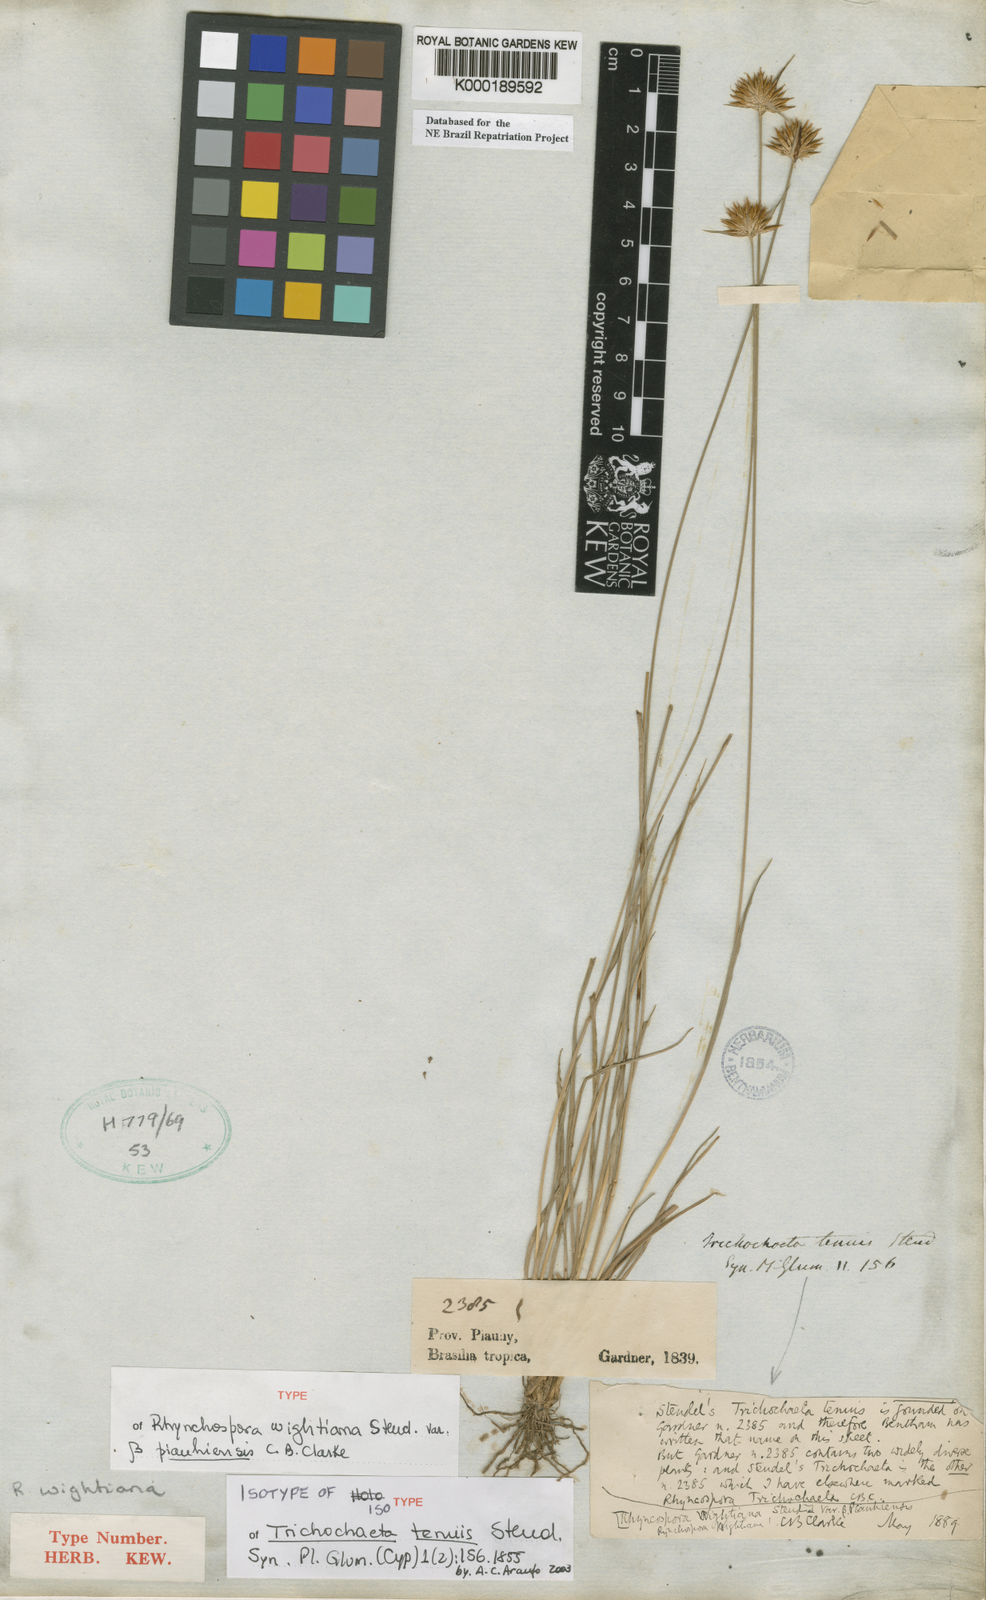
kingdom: Plantae
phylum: Tracheophyta
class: Liliopsida
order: Poales
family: Cyperaceae
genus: Rhynchospora
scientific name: Rhynchospora wightiana
